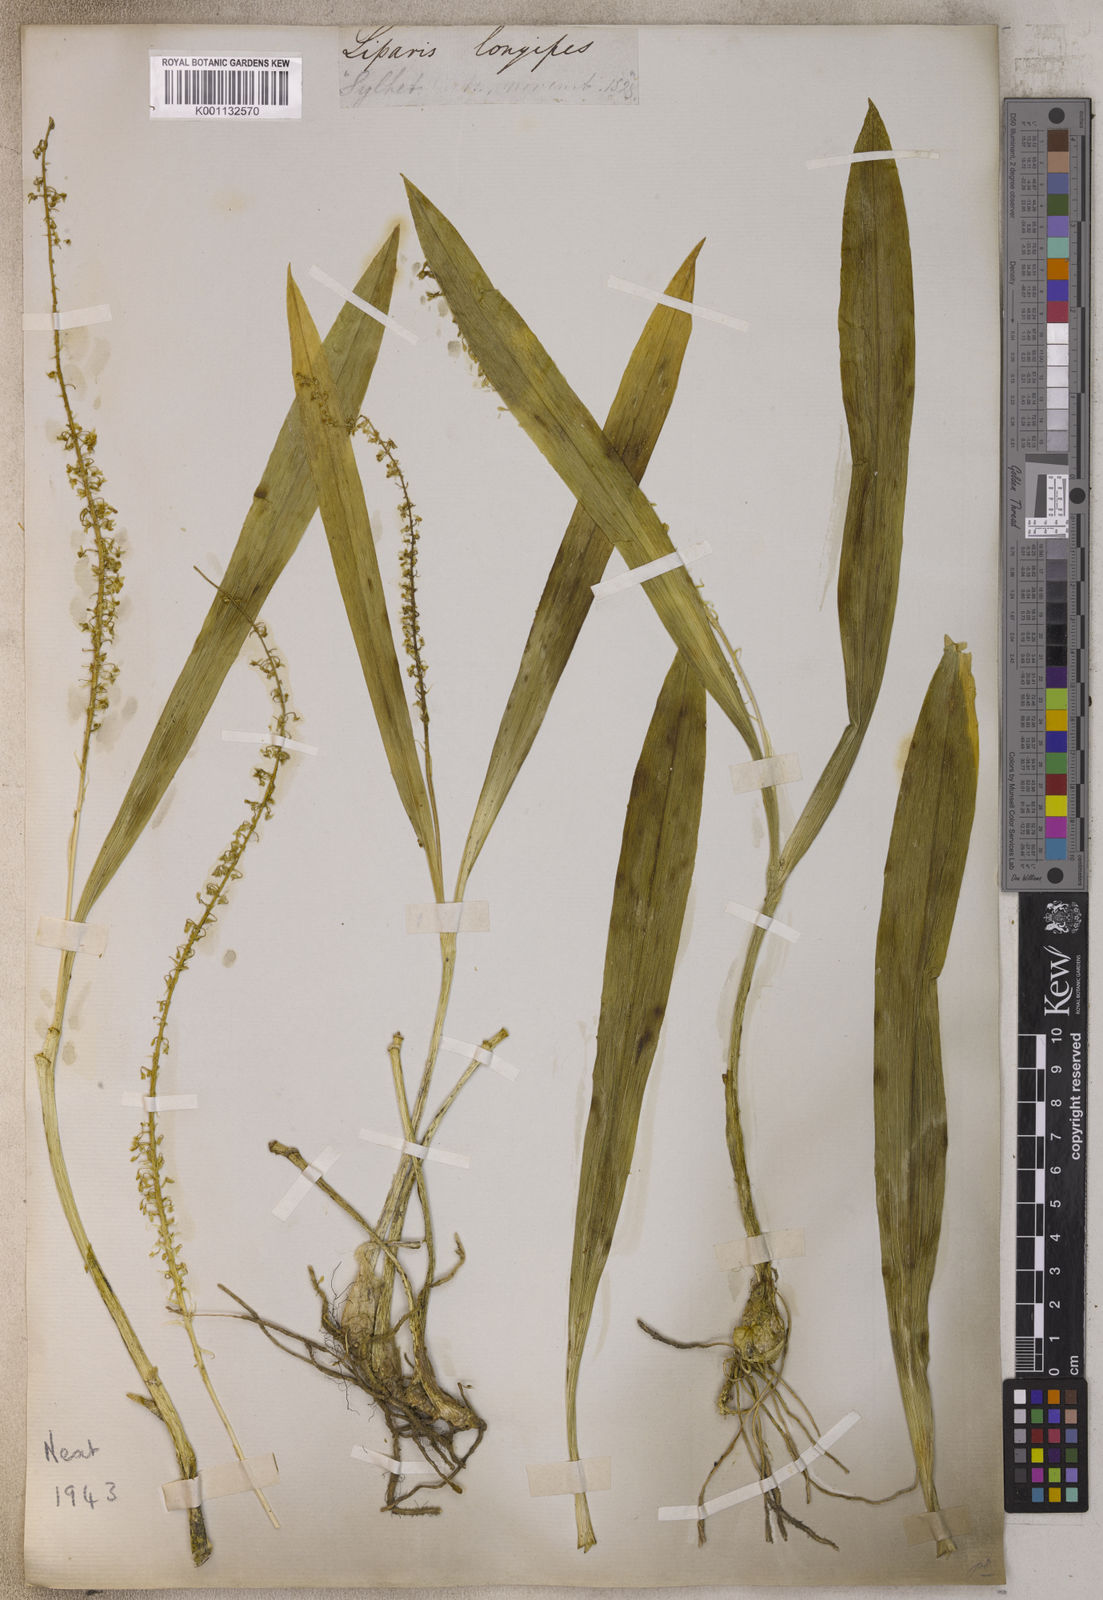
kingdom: Plantae
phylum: Tracheophyta
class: Liliopsida
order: Asparagales
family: Orchidaceae
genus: Liparis
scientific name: Liparis viridiflora
